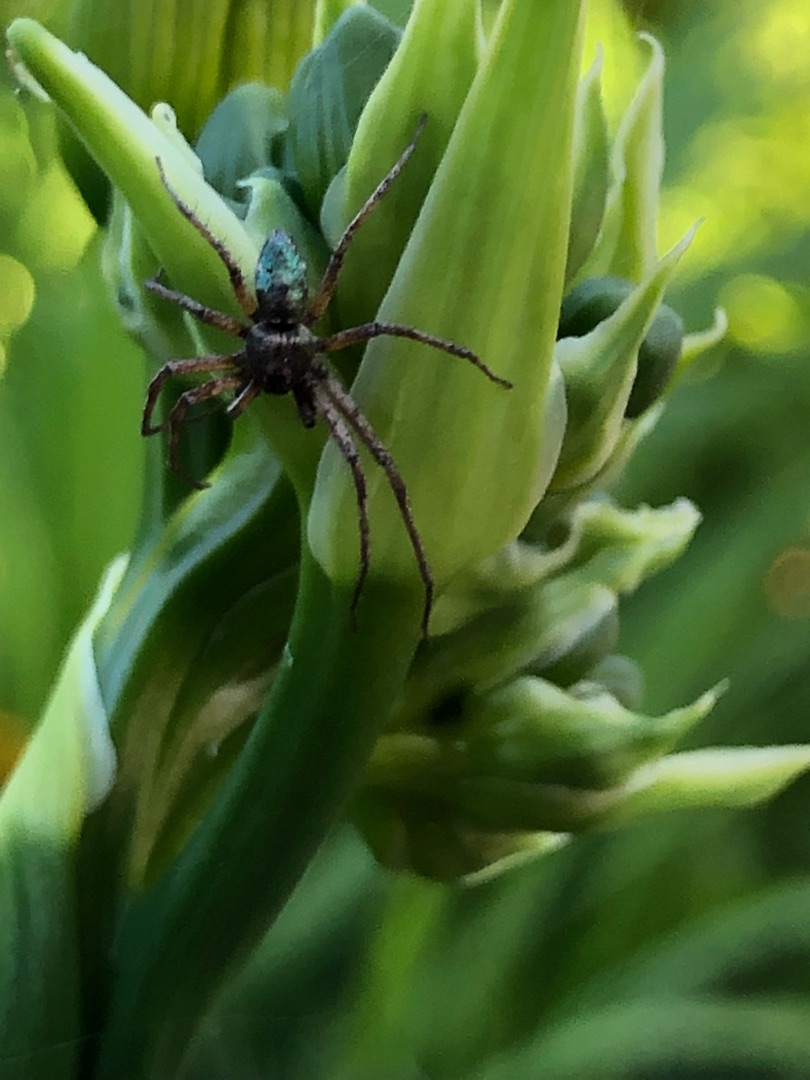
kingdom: Animalia
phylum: Arthropoda
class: Arachnida
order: Araneae
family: Philodromidae
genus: Philodromus
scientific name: Philodromus
